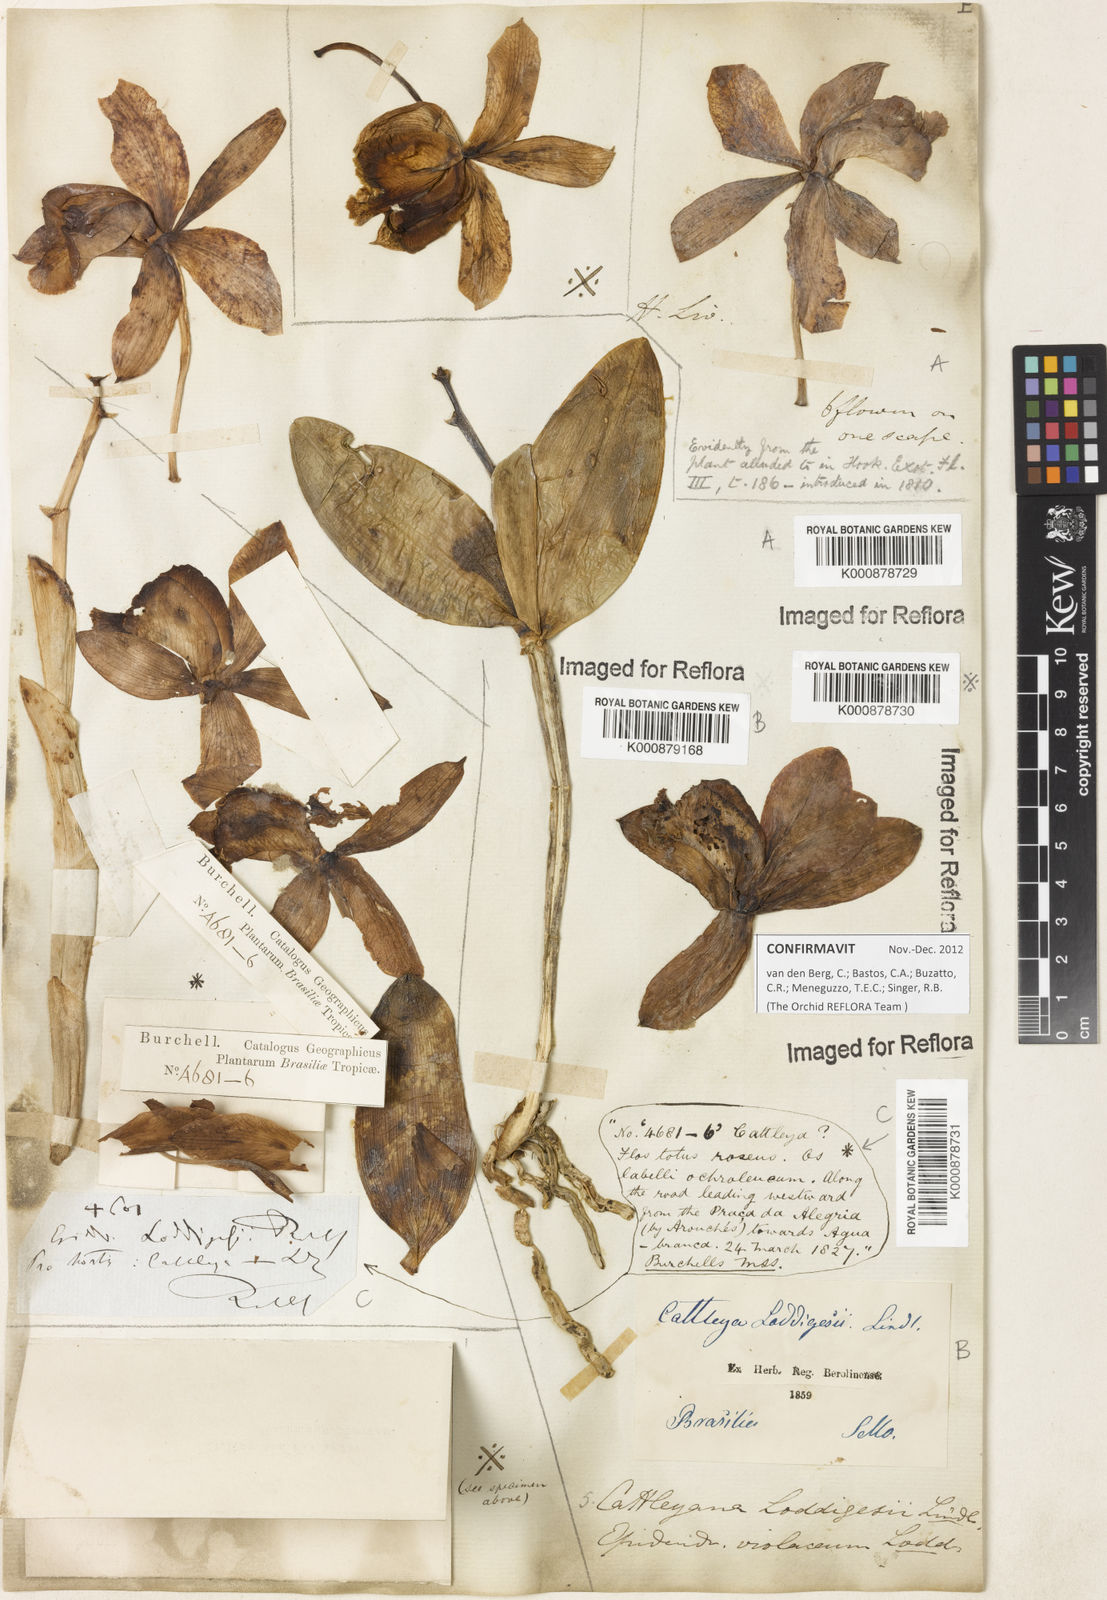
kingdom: Plantae
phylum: Tracheophyta
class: Liliopsida
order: Asparagales
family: Orchidaceae
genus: Cattleya
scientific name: Cattleya loddigesii
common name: Loddiges's cattleya
